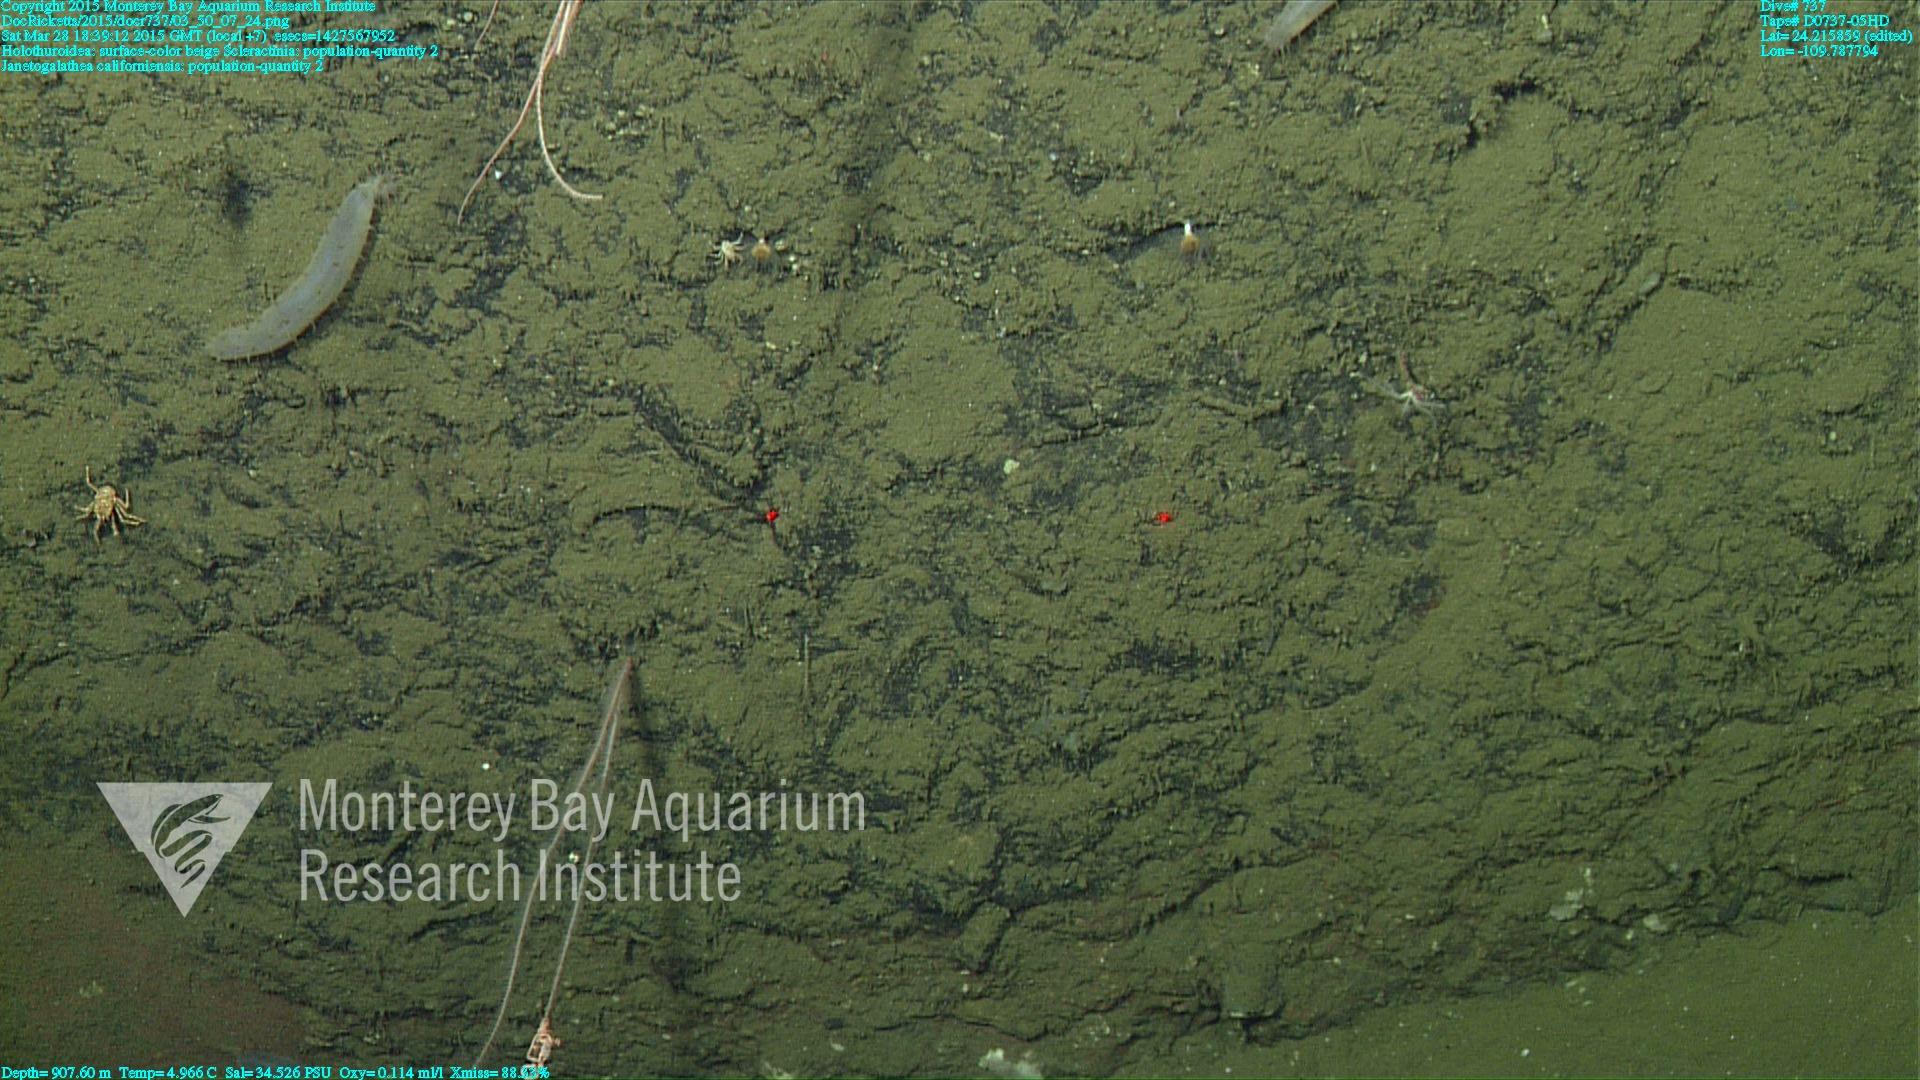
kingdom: Animalia
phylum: Cnidaria
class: Anthozoa
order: Scleractinia
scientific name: Scleractinia
